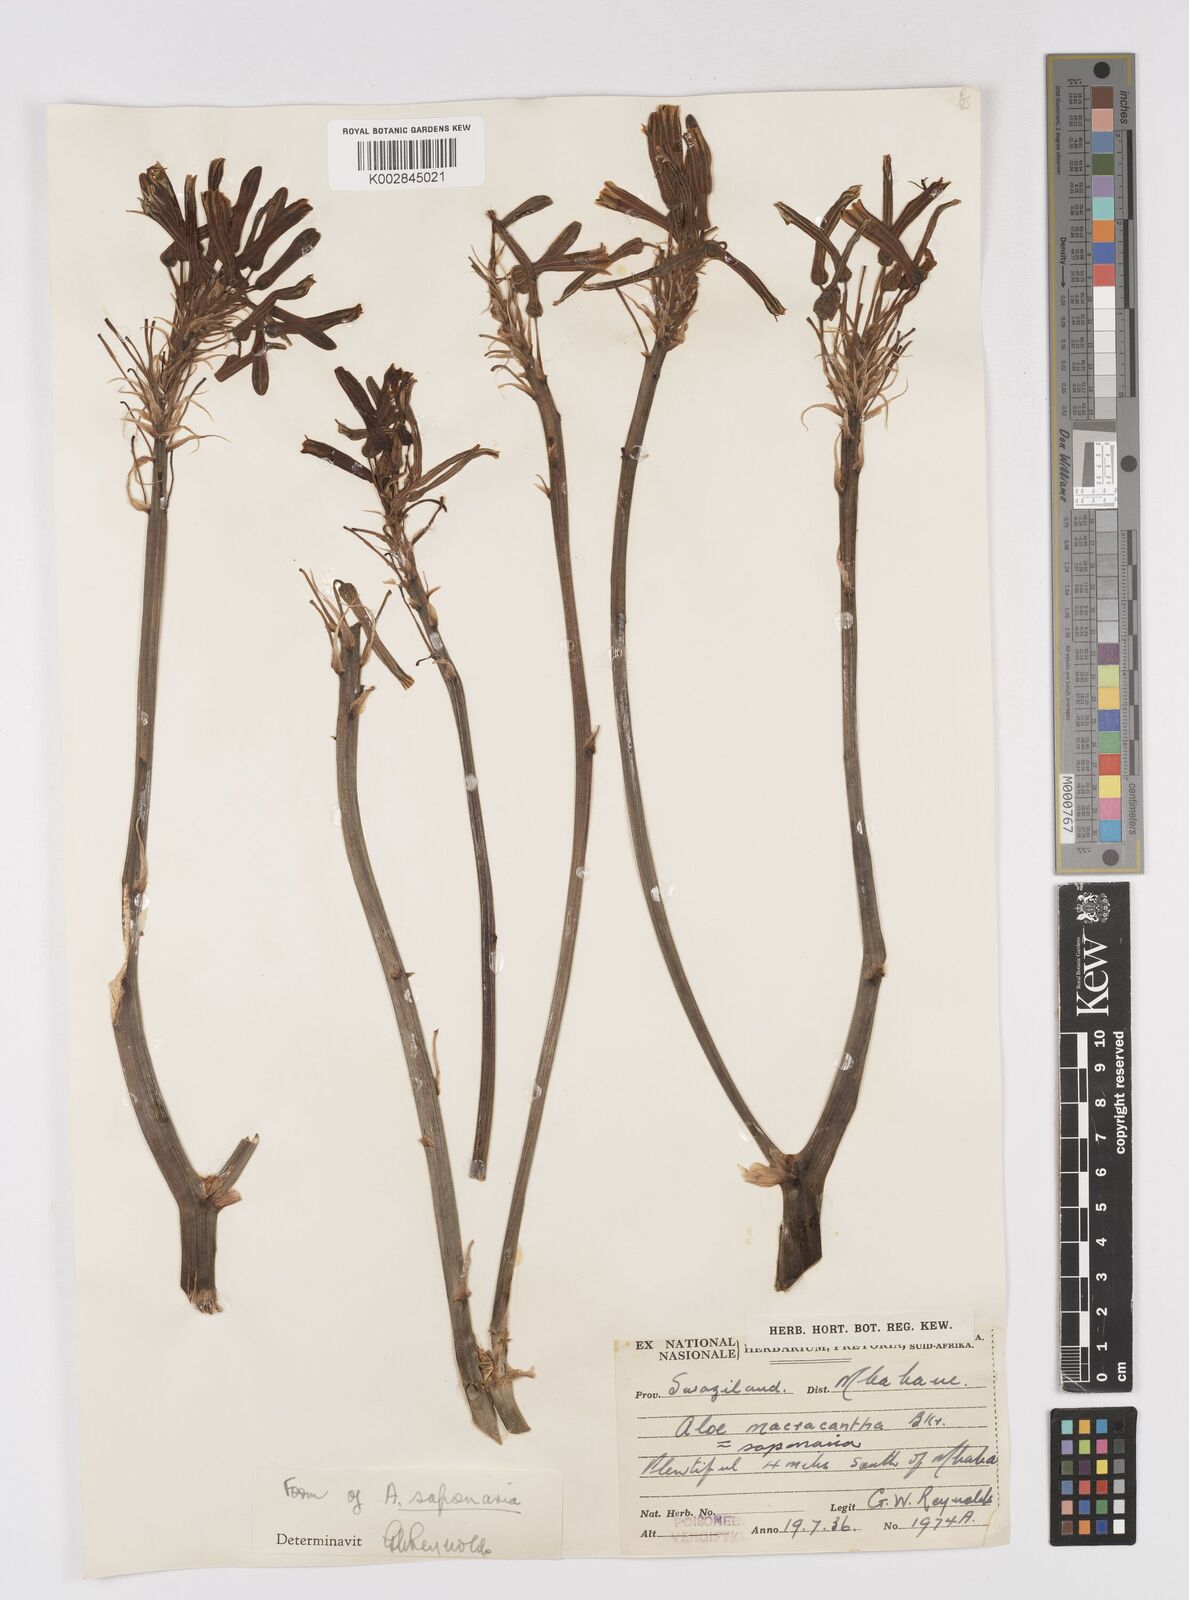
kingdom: Plantae
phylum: Tracheophyta
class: Liliopsida
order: Asparagales
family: Asphodelaceae
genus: Aloe
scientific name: Aloe microstigma
